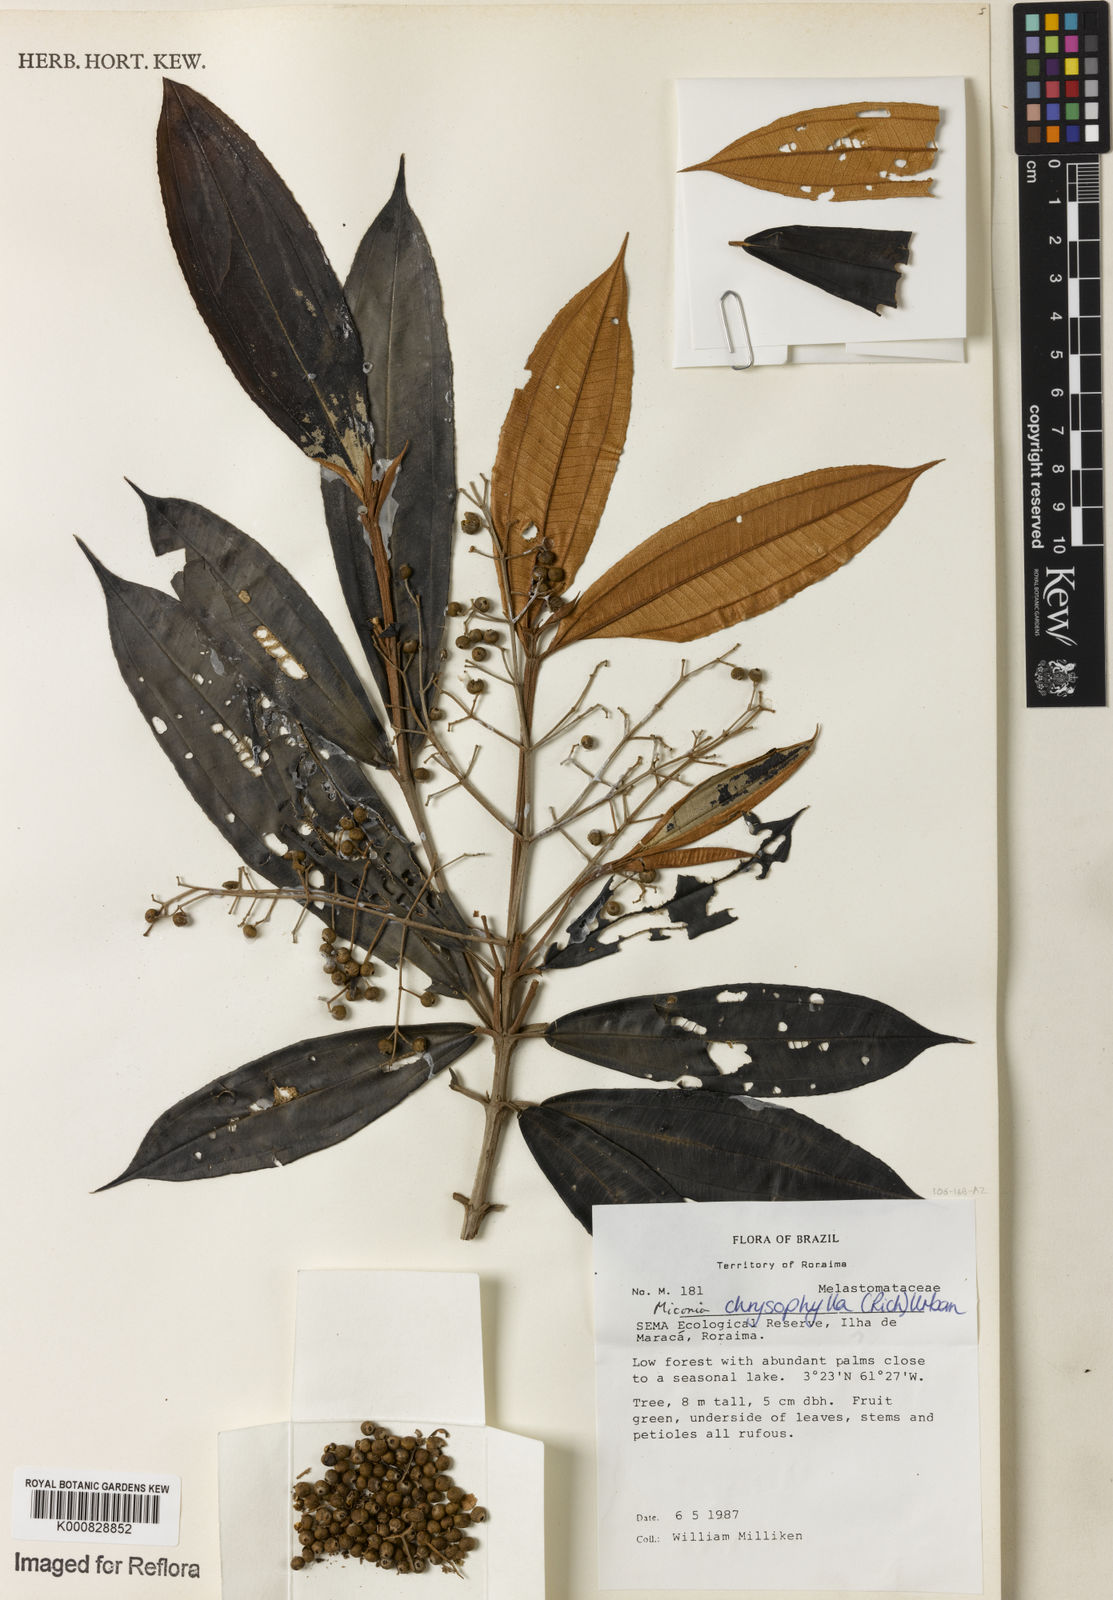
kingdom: Plantae
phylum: Tracheophyta
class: Magnoliopsida
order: Myrtales
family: Melastomataceae
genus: Miconia
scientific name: Miconia chrysophylla
